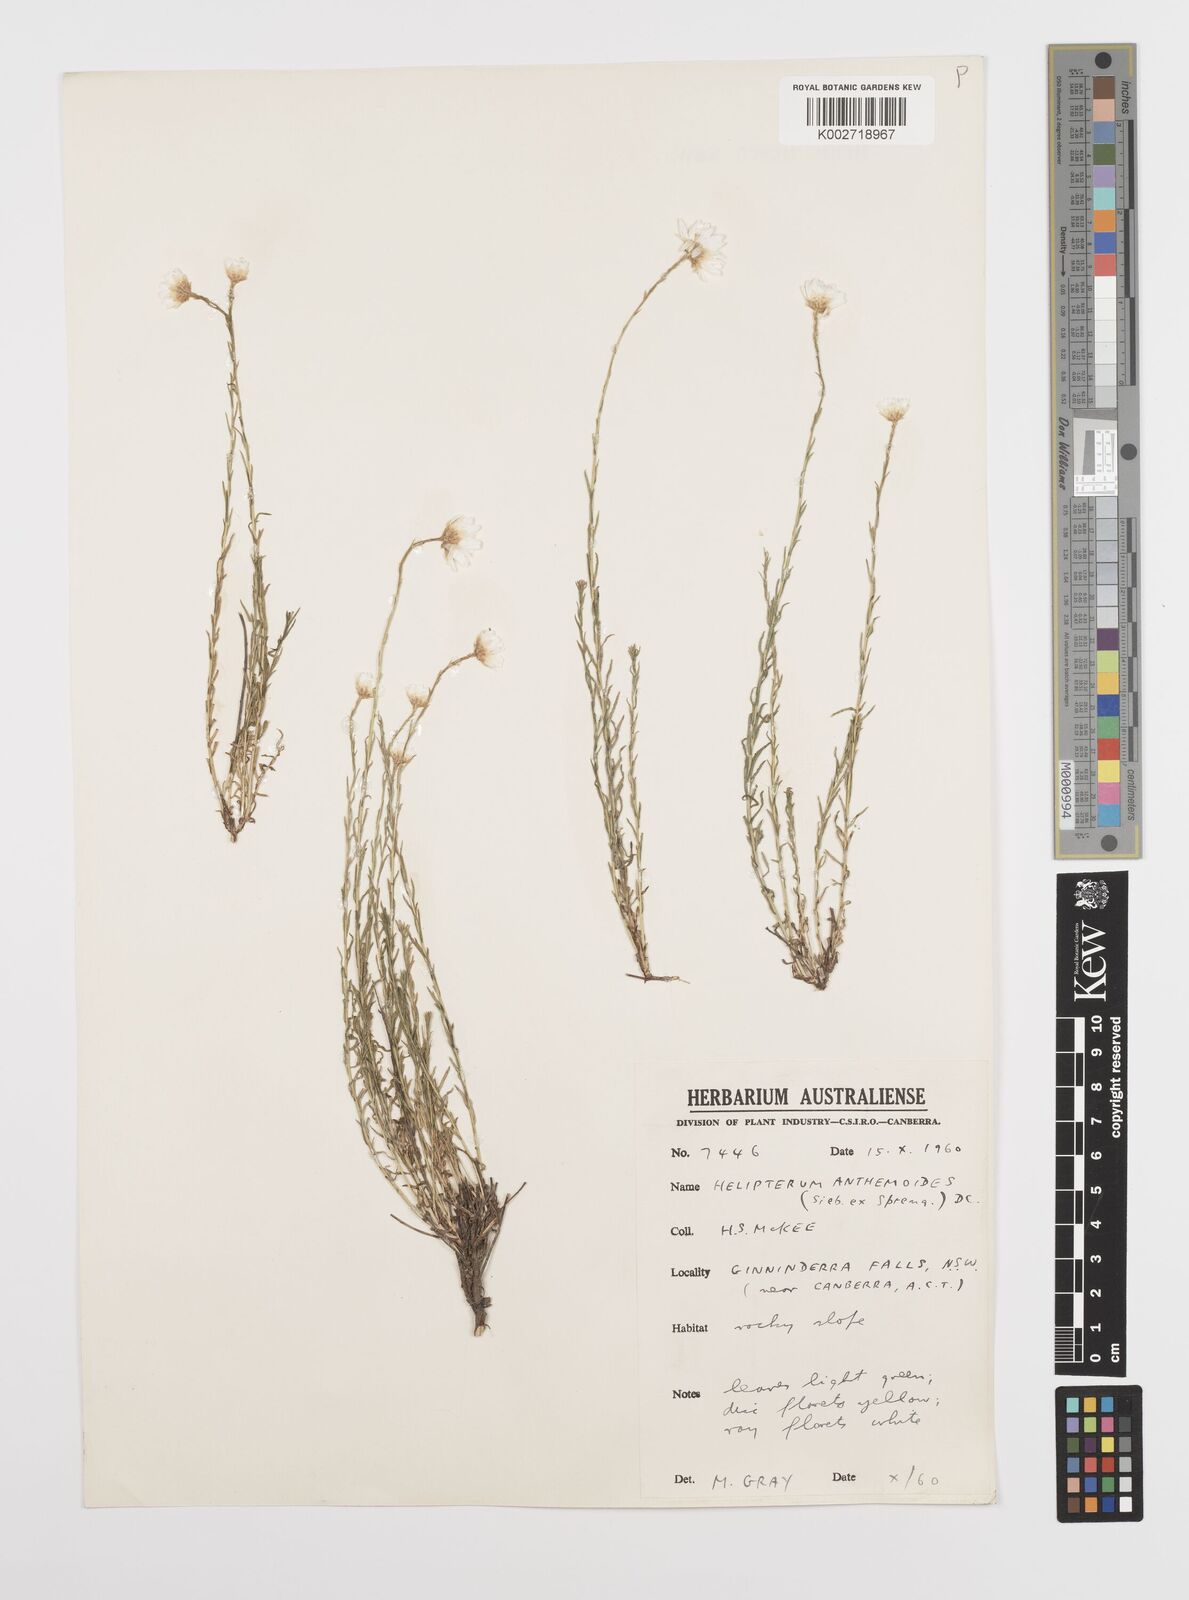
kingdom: Plantae
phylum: Tracheophyta
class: Magnoliopsida
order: Asterales
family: Asteraceae
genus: Rhodanthe
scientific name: Rhodanthe anthemoides
